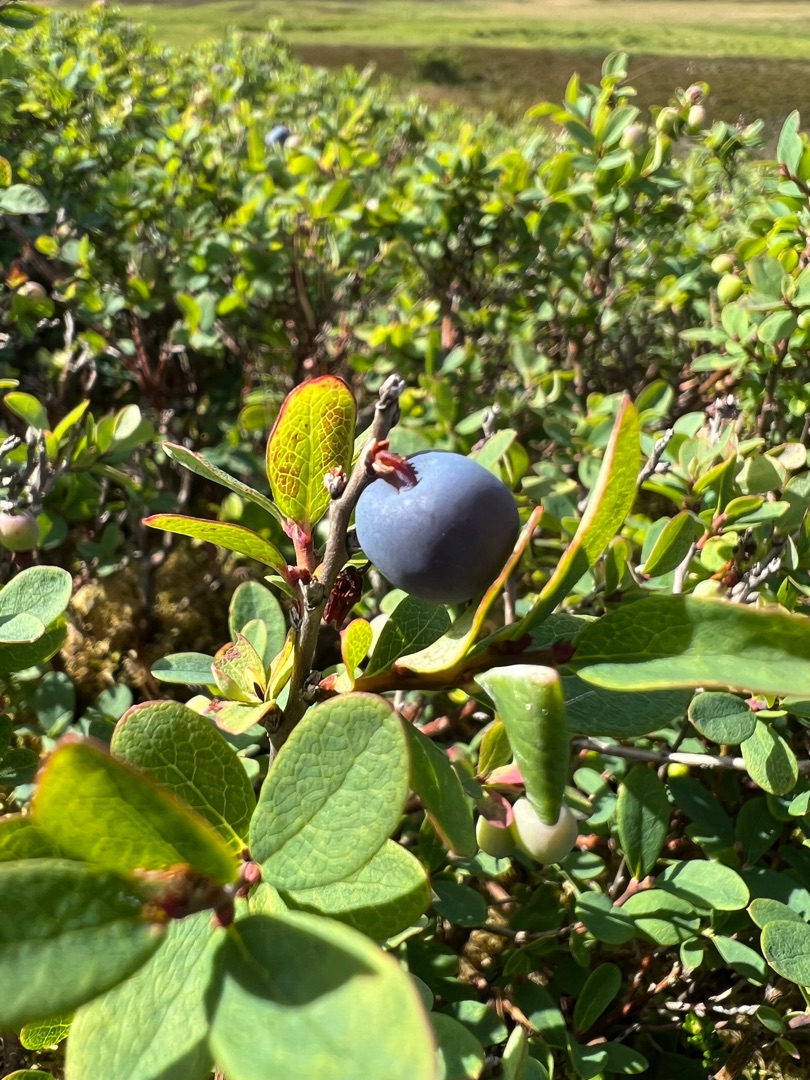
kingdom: Plantae
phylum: Tracheophyta
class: Magnoliopsida
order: Ericales
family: Ericaceae
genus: Vaccinium
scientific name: Vaccinium uliginosum
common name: Mose-bølle
